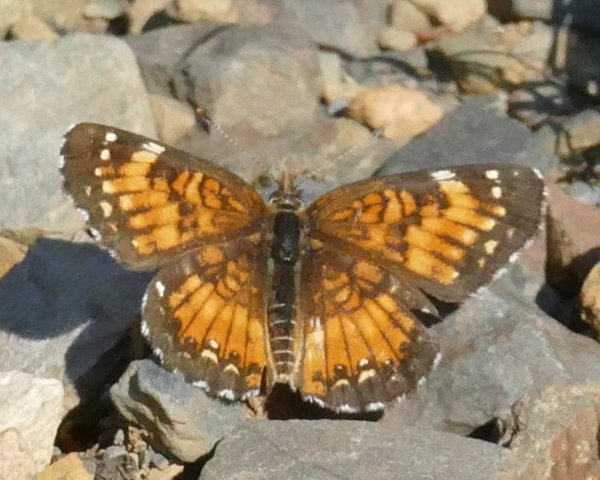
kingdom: Animalia
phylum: Arthropoda
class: Insecta
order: Lepidoptera
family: Nymphalidae
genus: Chlosyne
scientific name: Chlosyne harrisii
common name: Harris's Checkerspot
